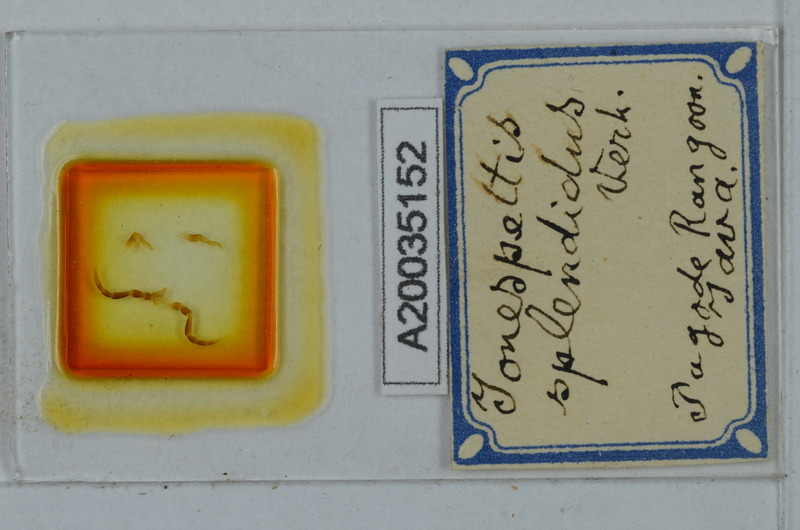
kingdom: Animalia
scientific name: Animalia
